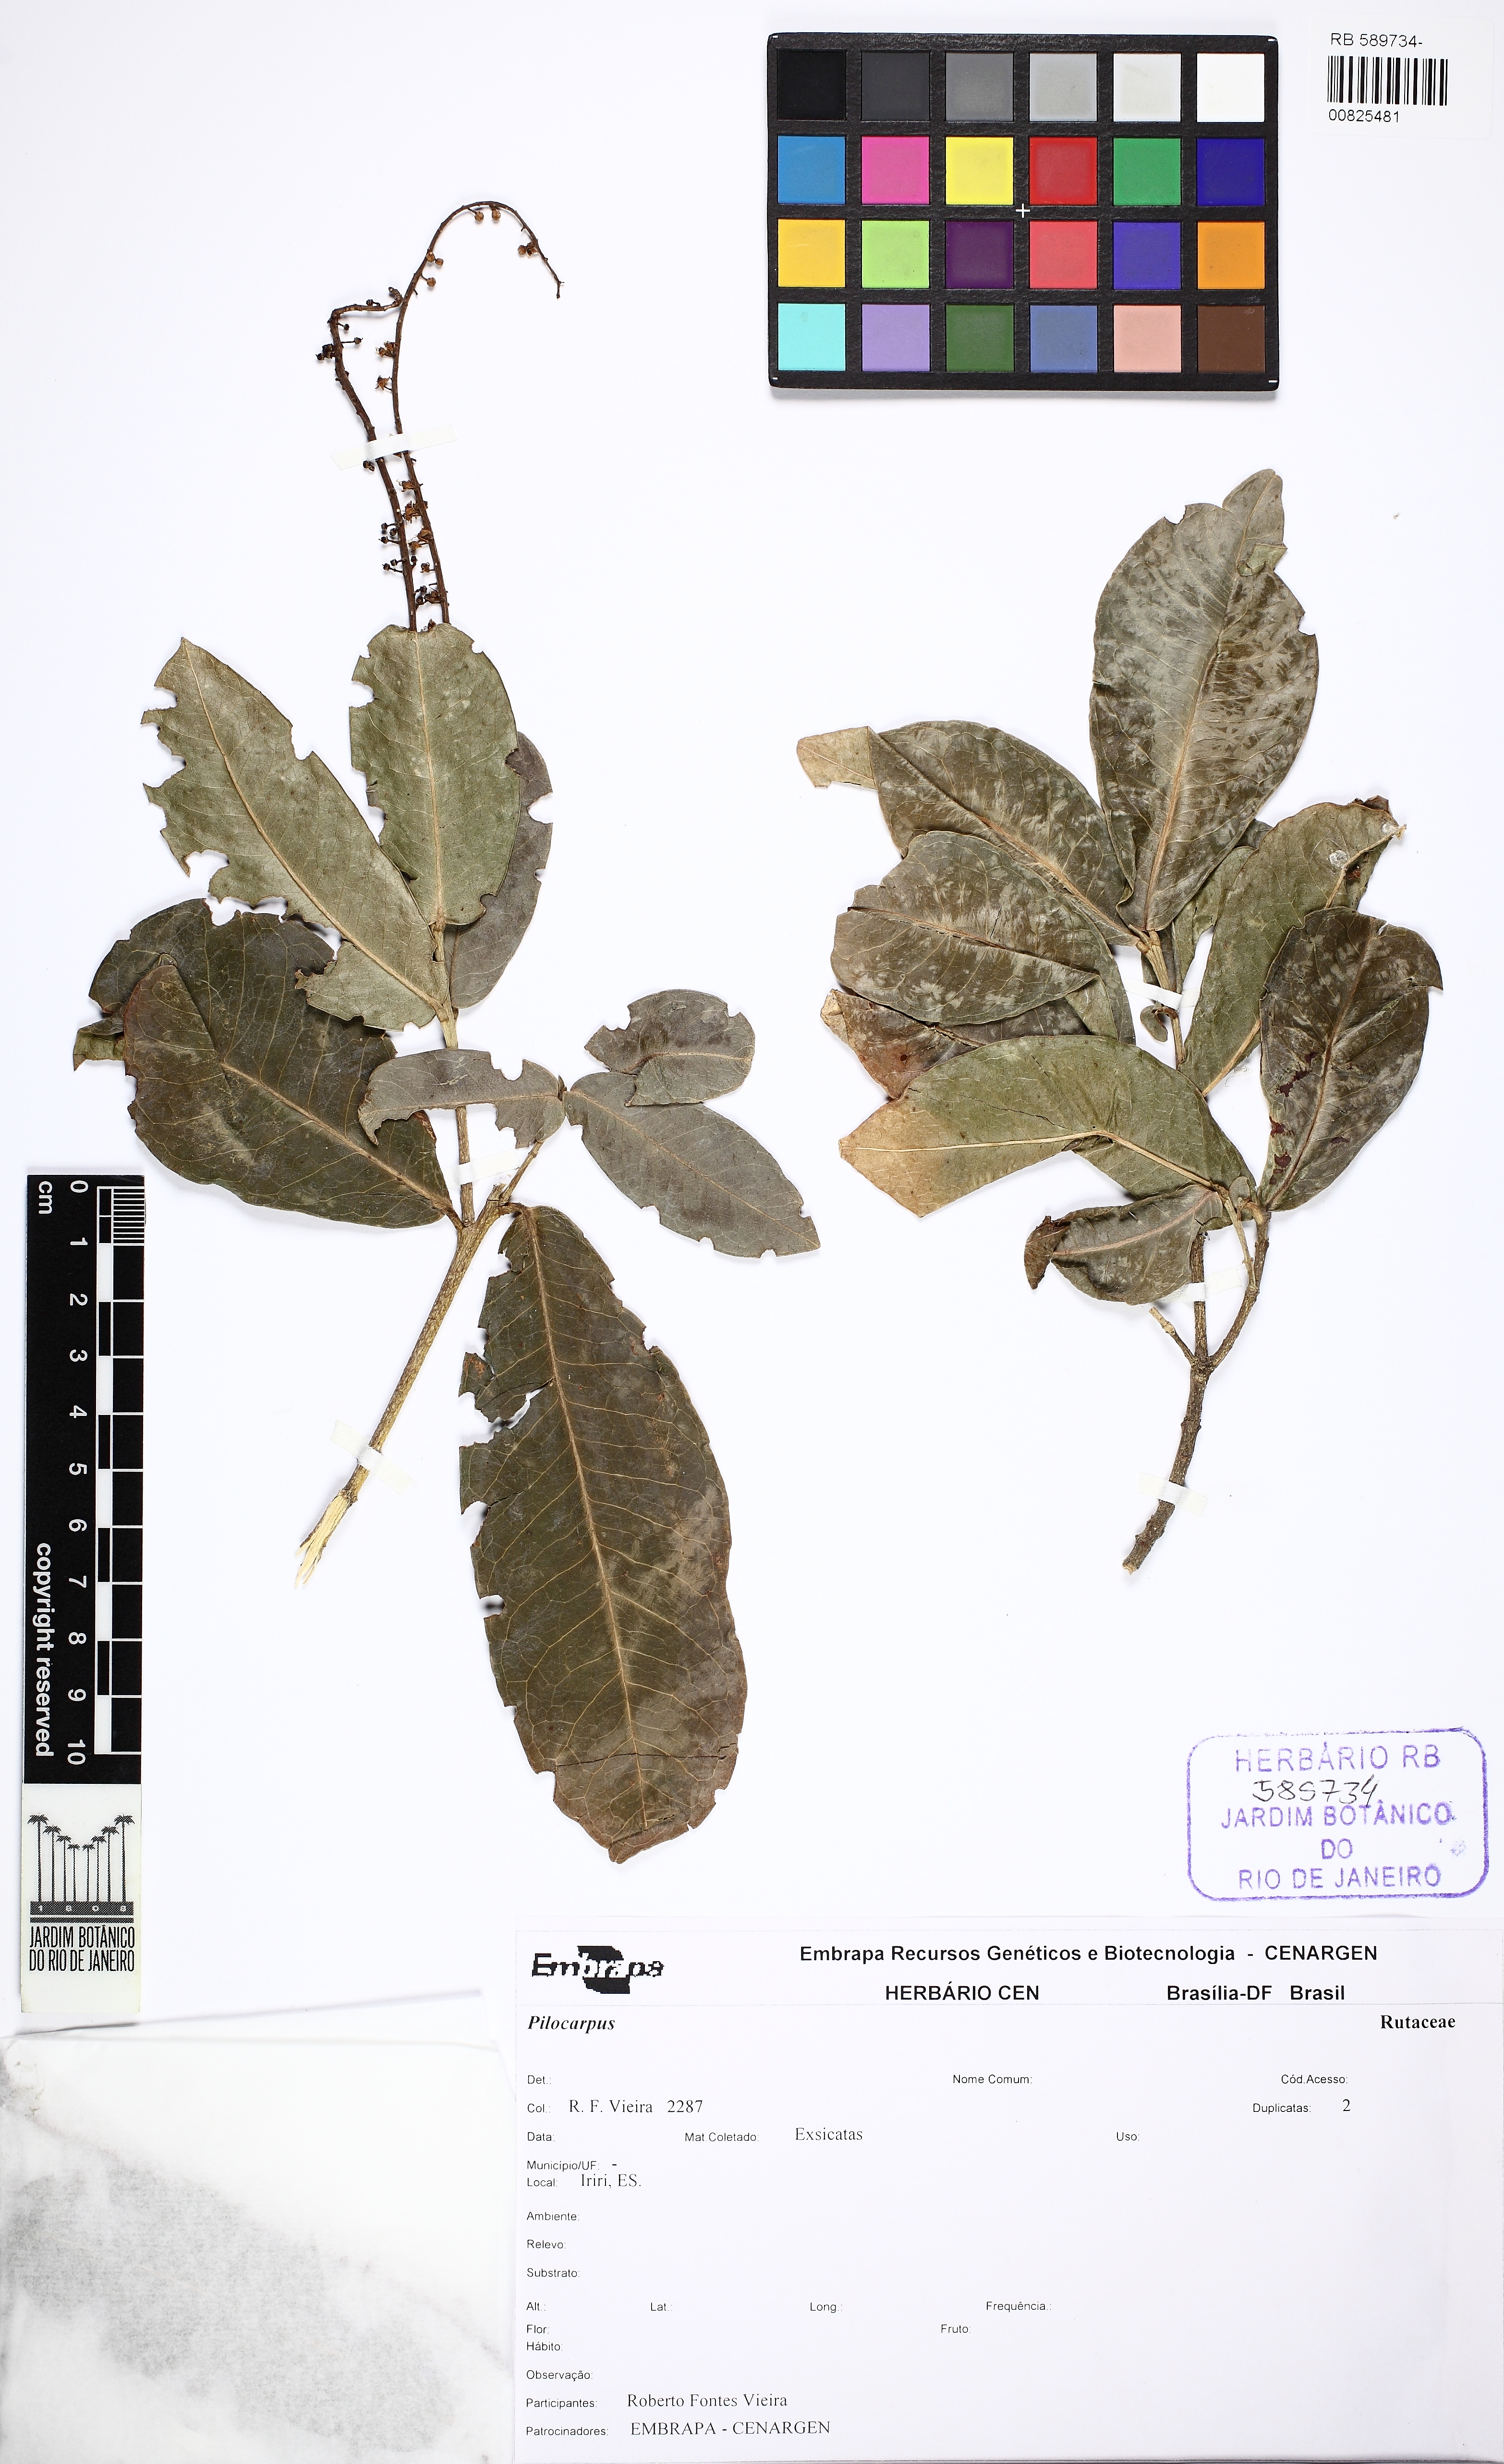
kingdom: Plantae
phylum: Tracheophyta
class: Magnoliopsida
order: Sapindales
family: Rutaceae
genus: Pilocarpus
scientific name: Pilocarpus
